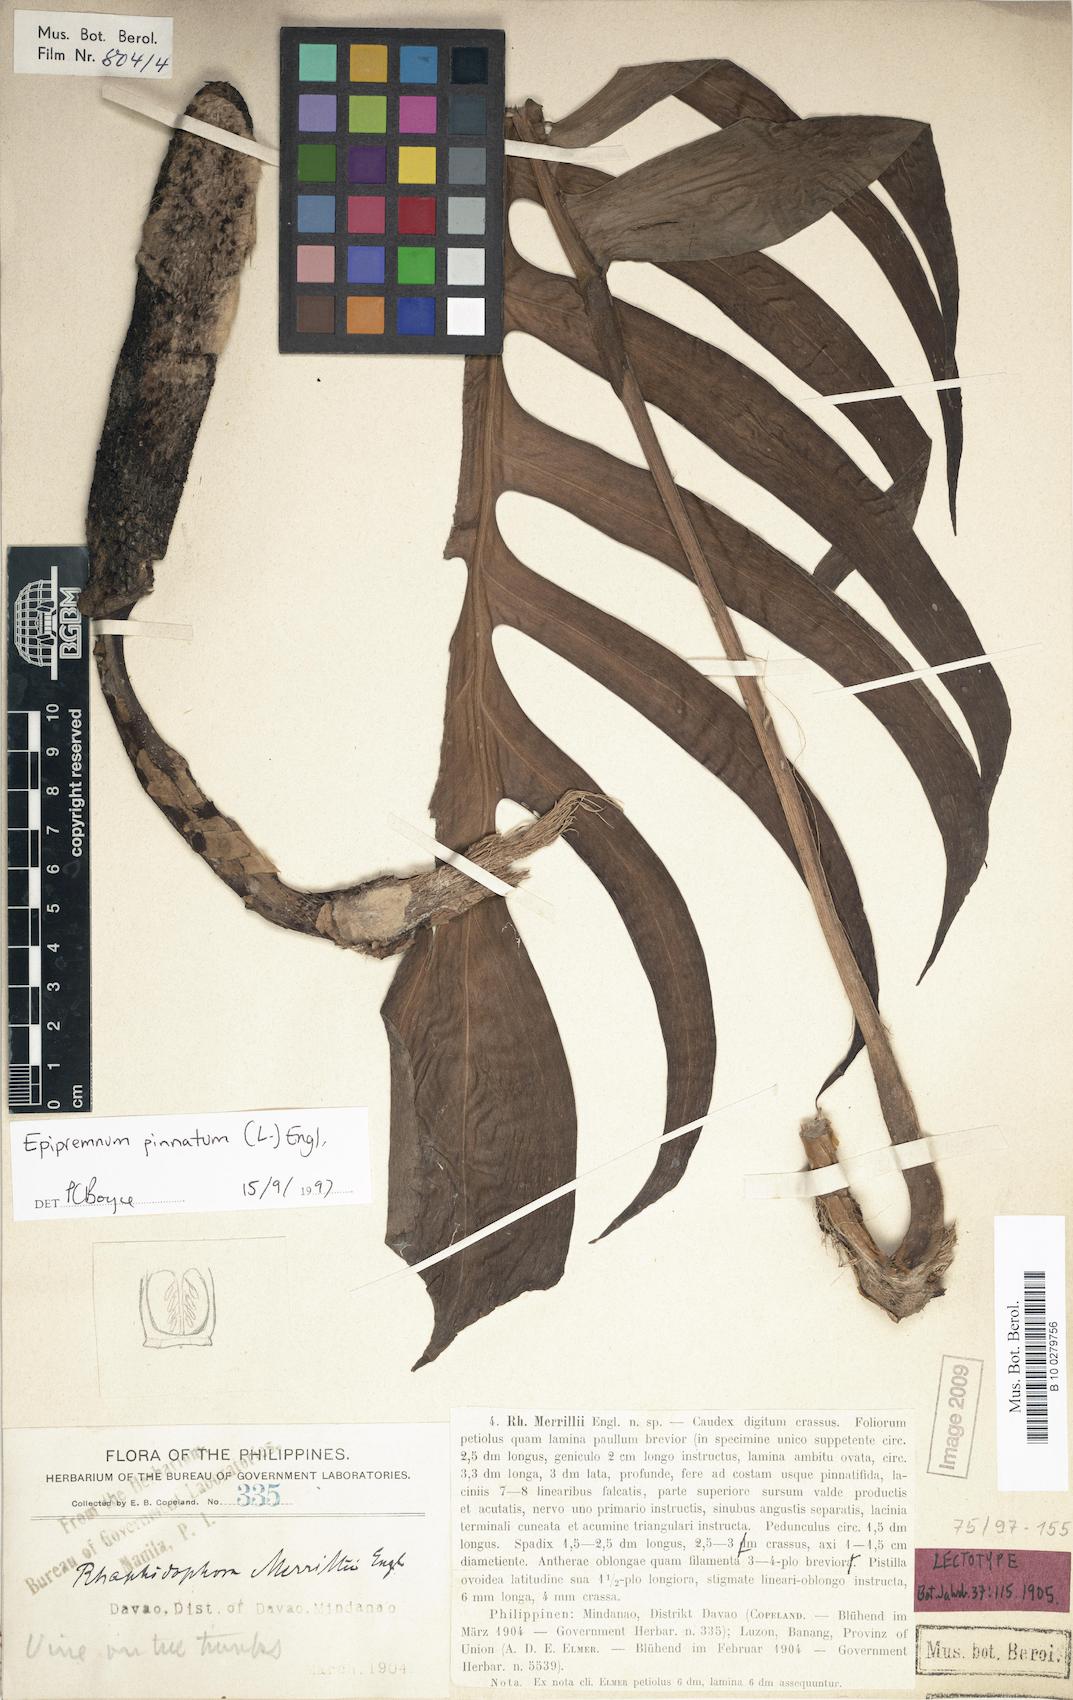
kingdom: Plantae
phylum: Tracheophyta
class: Liliopsida
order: Alismatales
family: Araceae
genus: Epipremnum
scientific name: Epipremnum pinnatum
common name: Centipede tongavine
